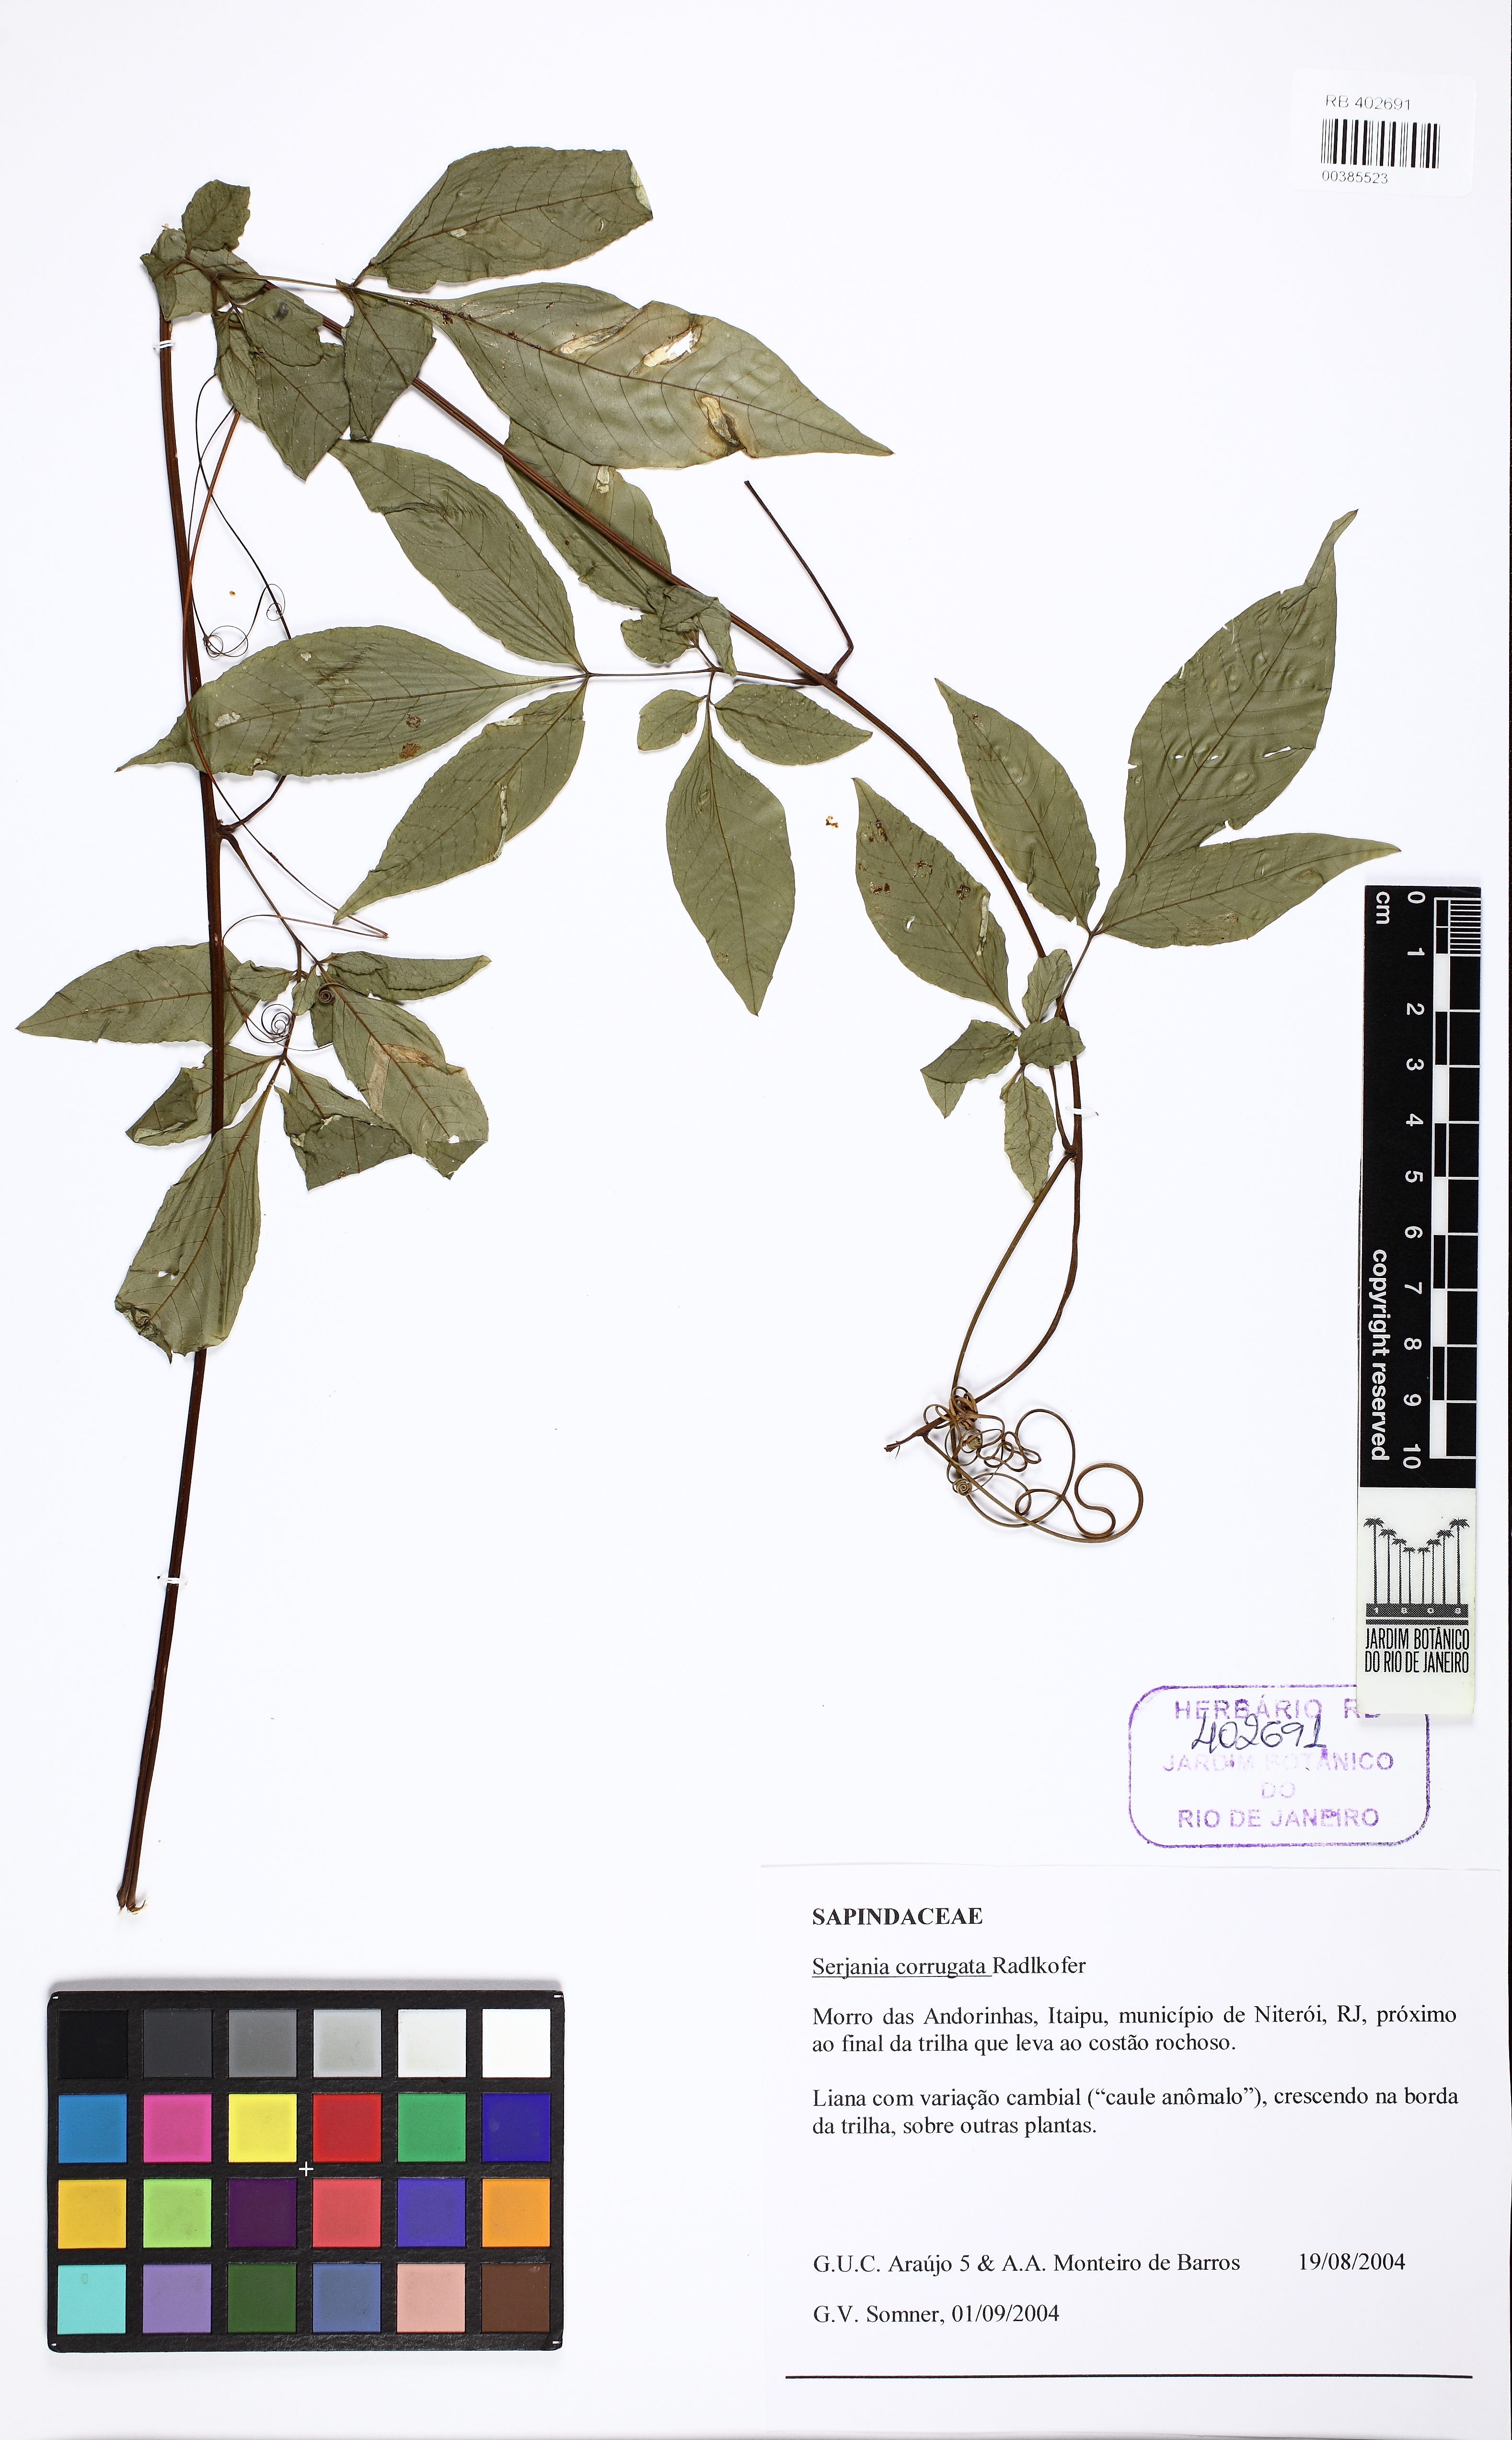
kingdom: Plantae
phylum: Tracheophyta
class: Magnoliopsida
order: Sapindales
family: Sapindaceae
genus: Serjania
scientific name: Serjania corrugata
